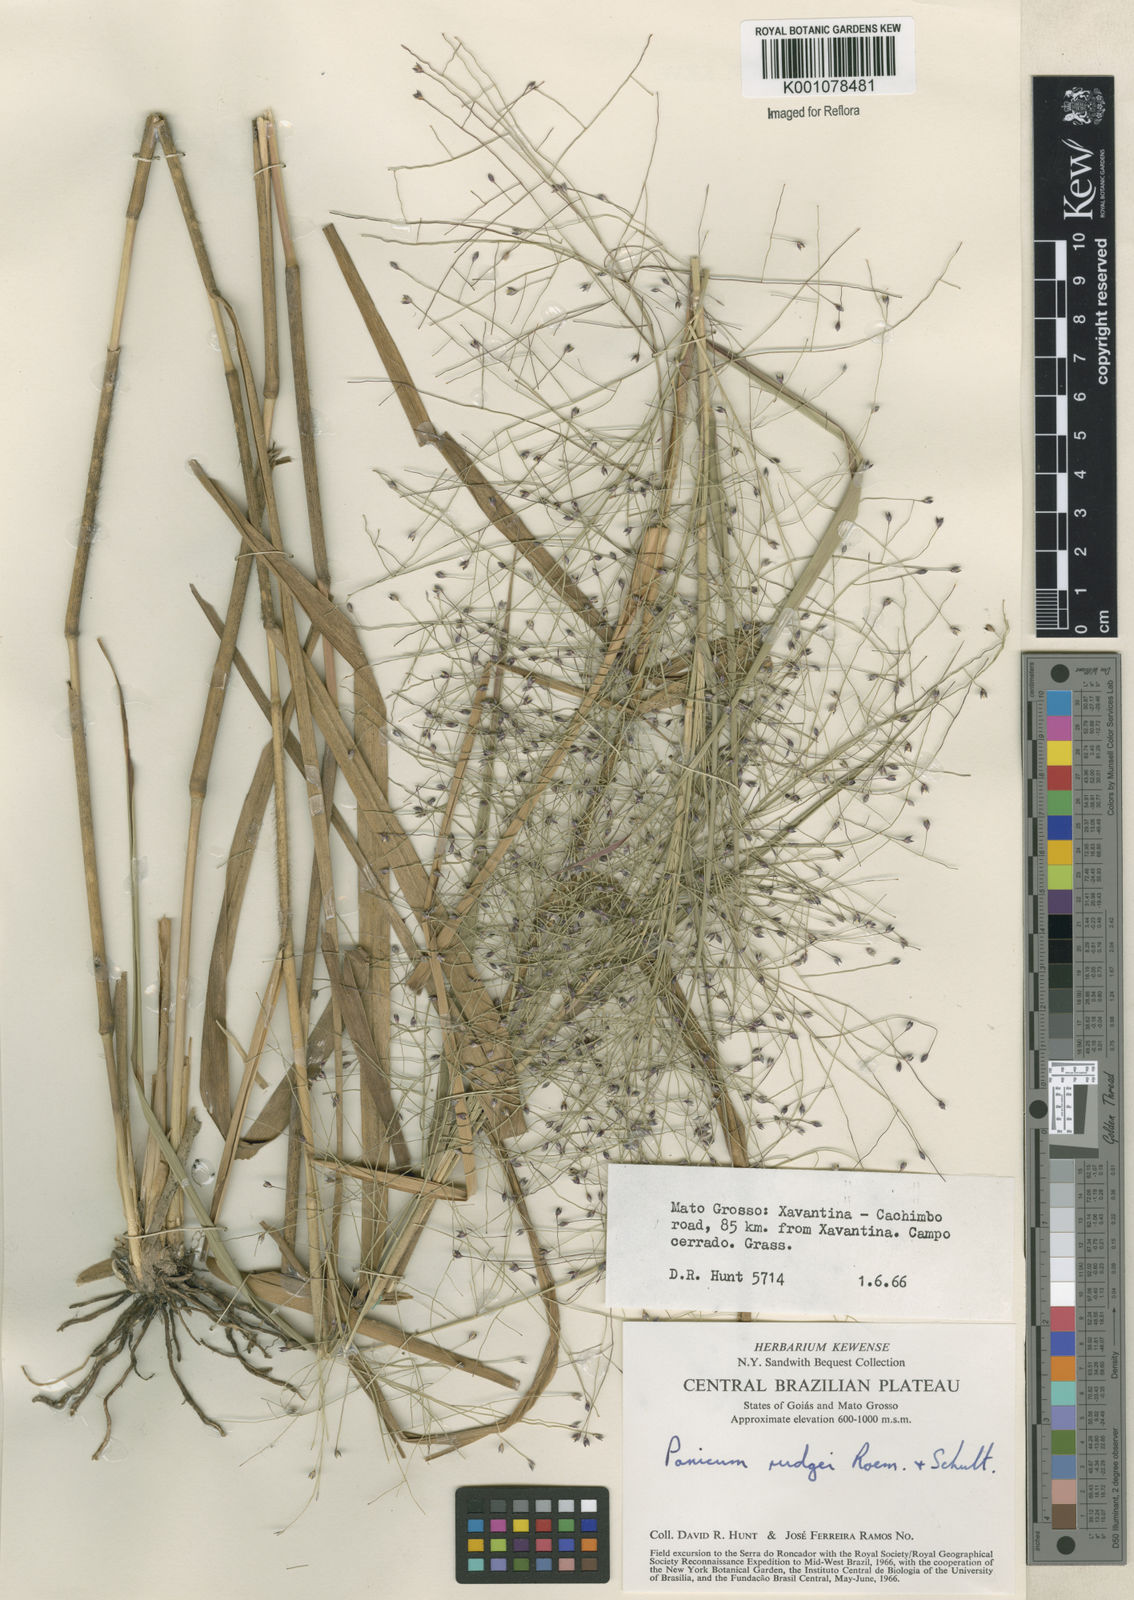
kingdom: Plantae
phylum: Tracheophyta
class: Liliopsida
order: Poales
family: Poaceae
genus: Panicum
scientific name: Panicum rudgei
